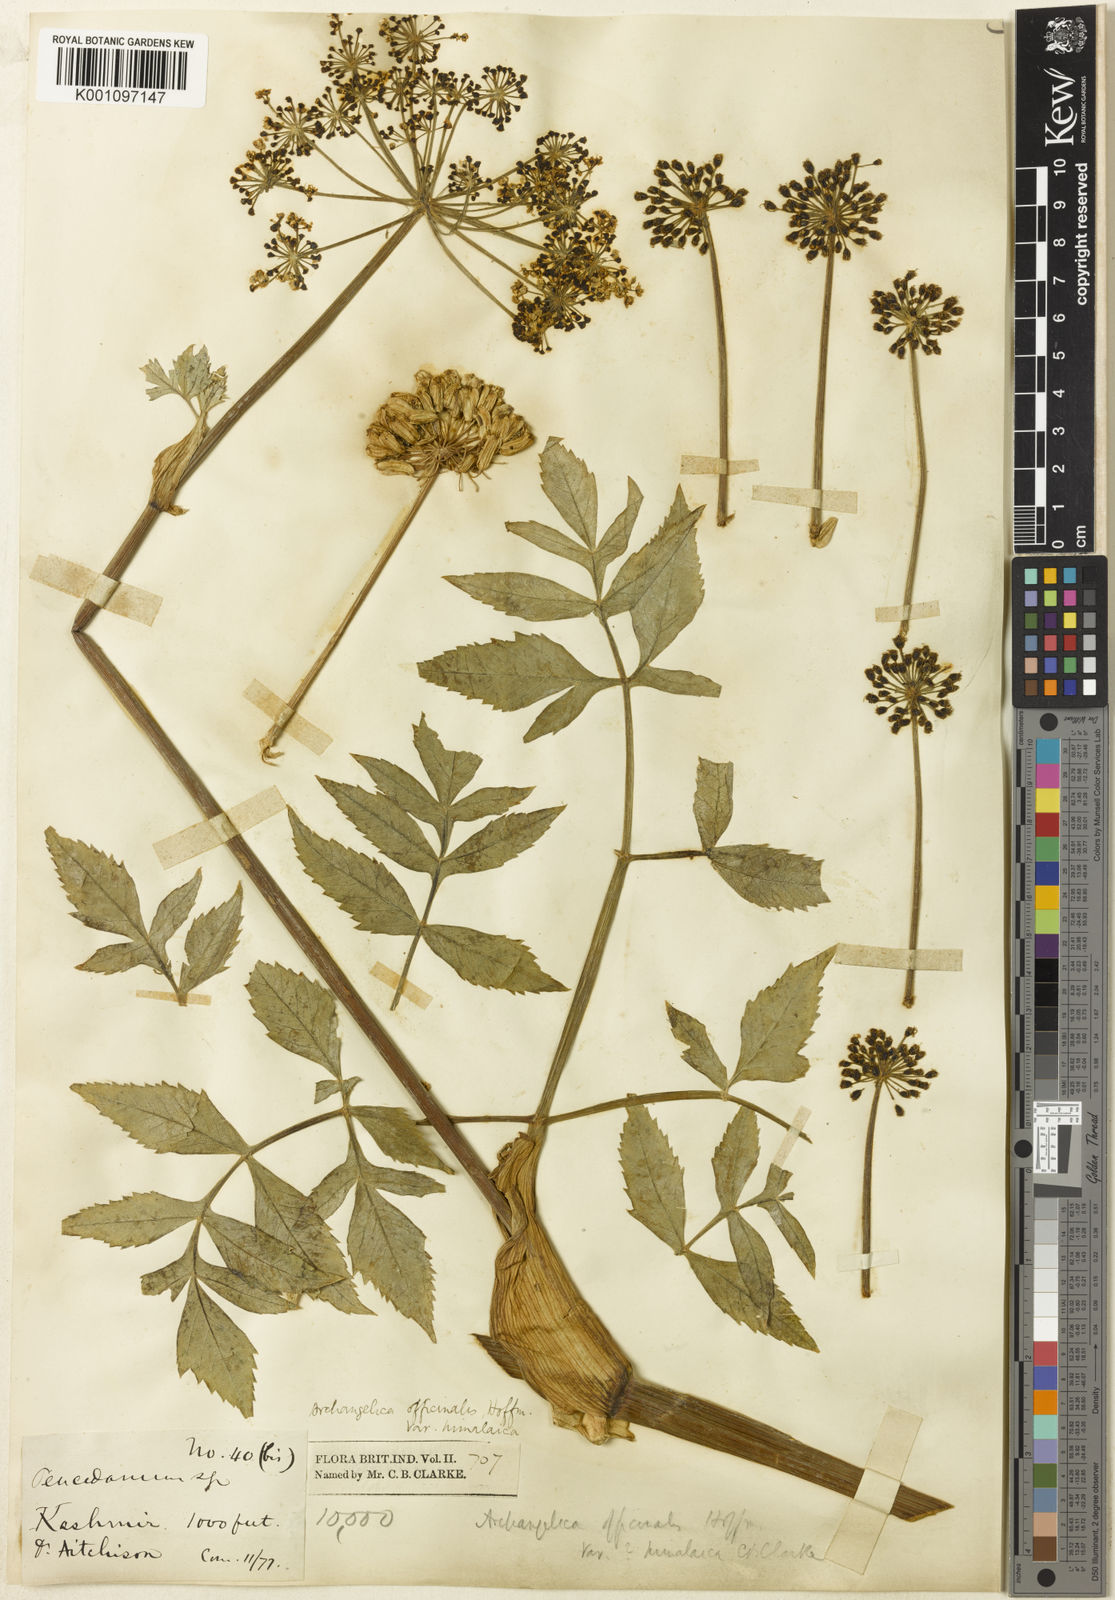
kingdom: Plantae
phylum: Tracheophyta
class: Magnoliopsida
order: Apiales
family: Apiaceae
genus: Angelica
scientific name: Angelica oreada
